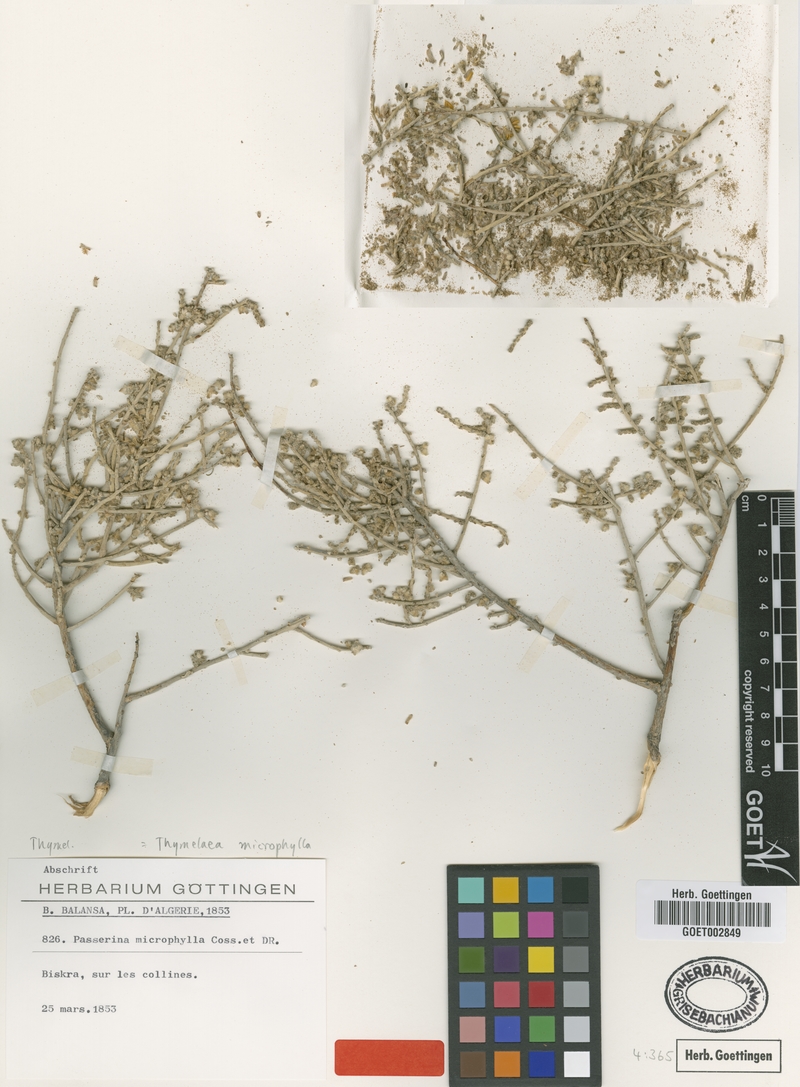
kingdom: Plantae
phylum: Tracheophyta
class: Magnoliopsida
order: Malvales
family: Thymelaeaceae
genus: Thymelaea
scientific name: Thymelaea microphylla
